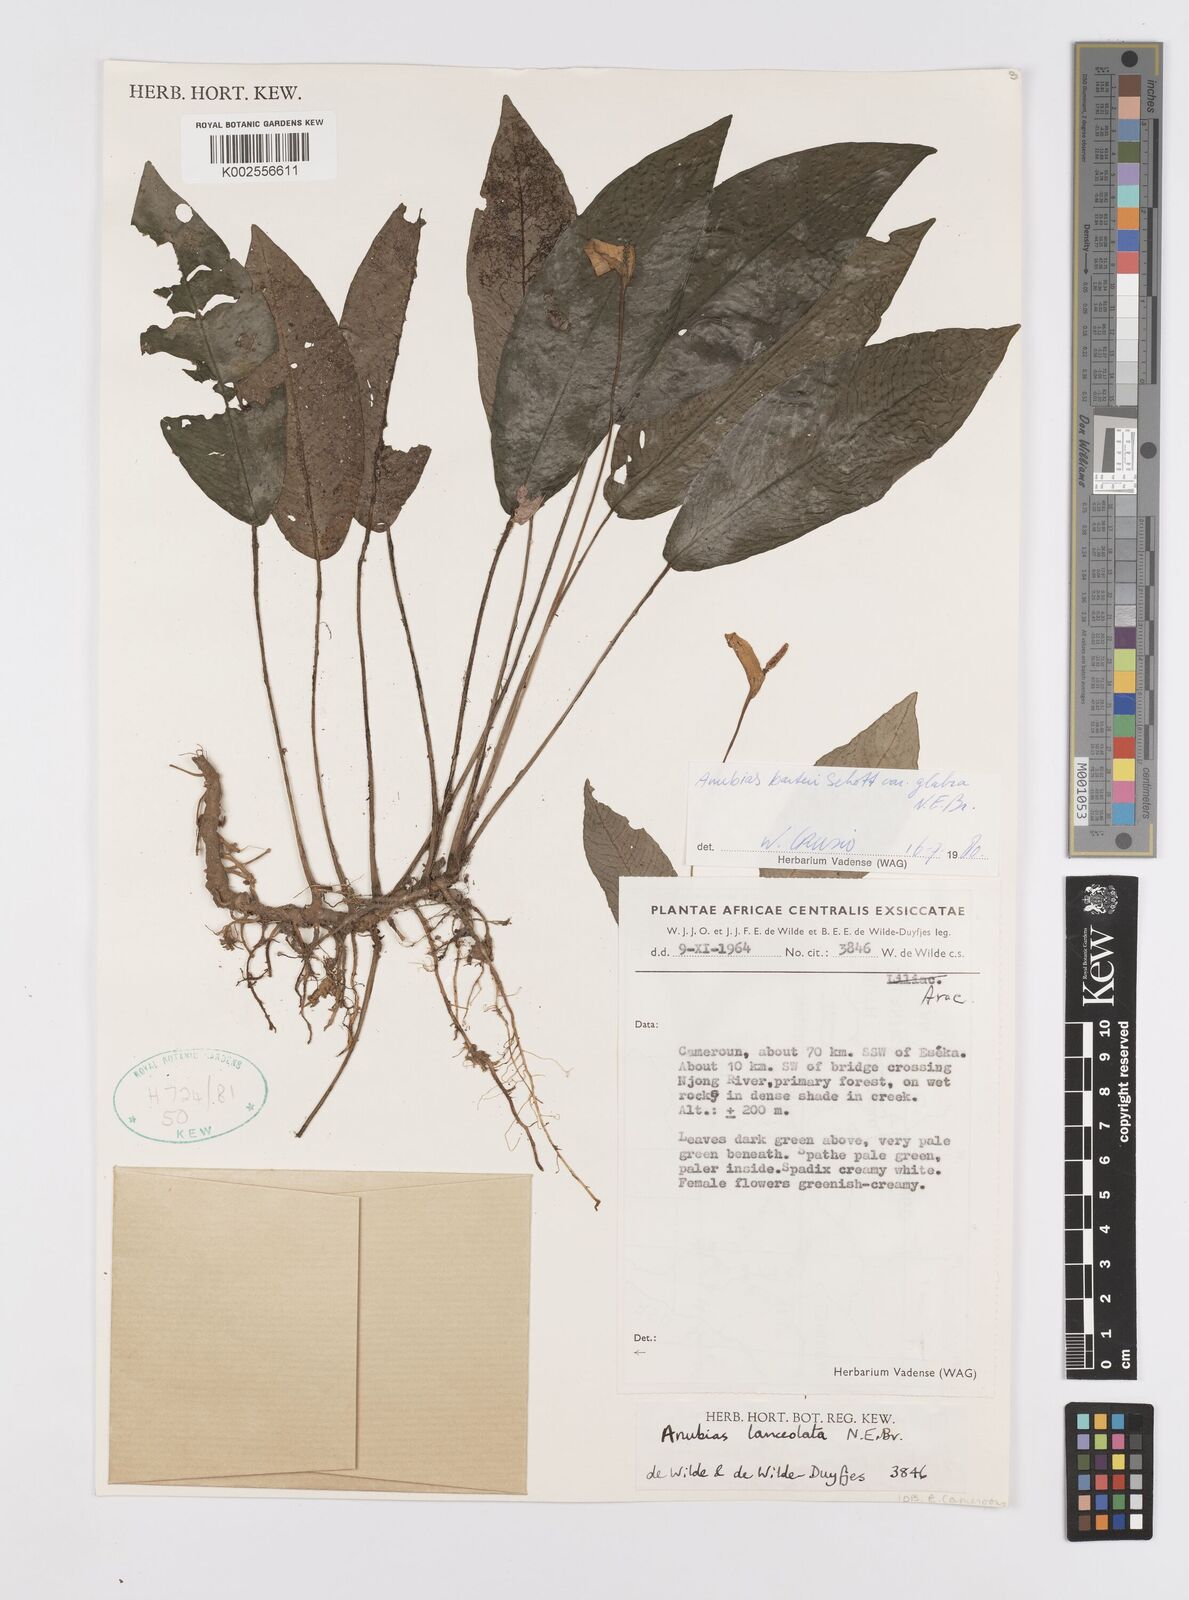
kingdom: Plantae
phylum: Tracheophyta
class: Liliopsida
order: Alismatales
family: Araceae
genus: Anubias
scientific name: Anubias barteri
